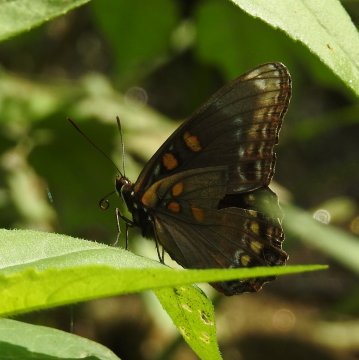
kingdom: Animalia
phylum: Arthropoda
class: Insecta
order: Lepidoptera
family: Nymphalidae
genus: Limenitis
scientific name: Limenitis arthemis
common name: Red-spotted Admiral
